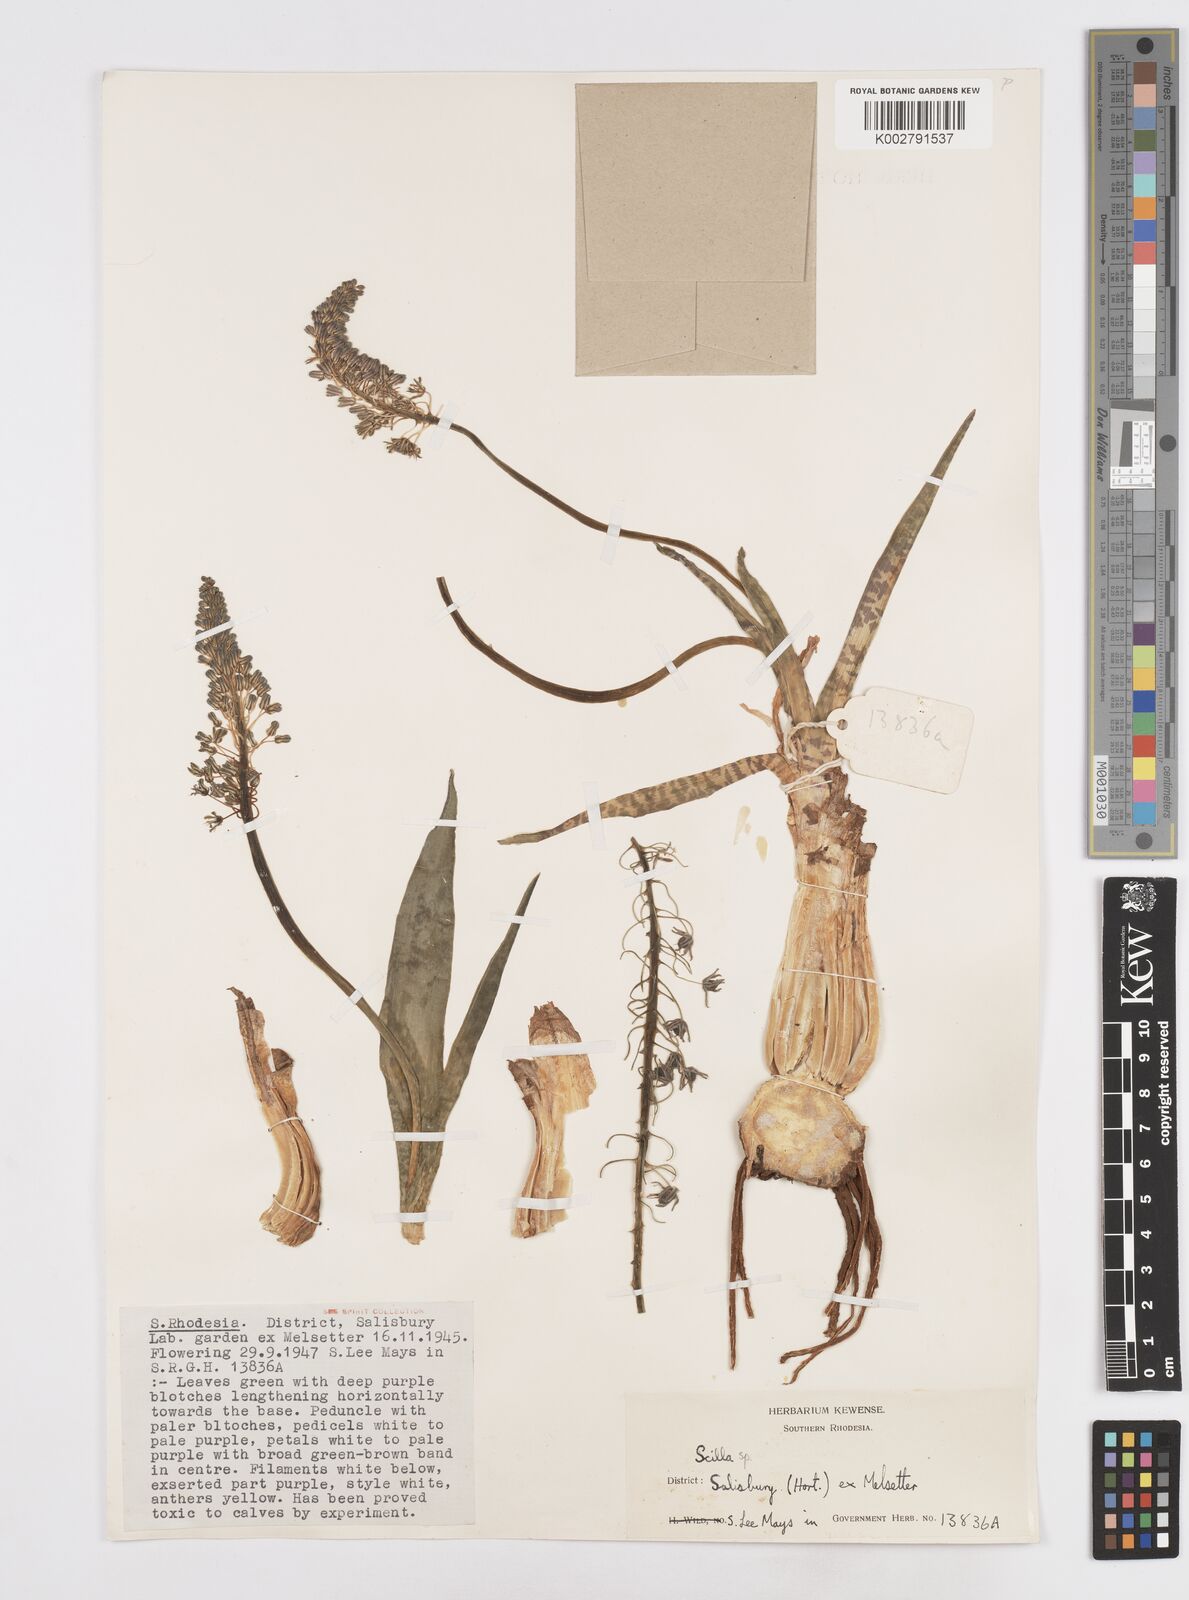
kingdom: Plantae
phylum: Tracheophyta
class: Liliopsida
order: Asparagales
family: Asparagaceae
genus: Scilla
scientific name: Scilla
